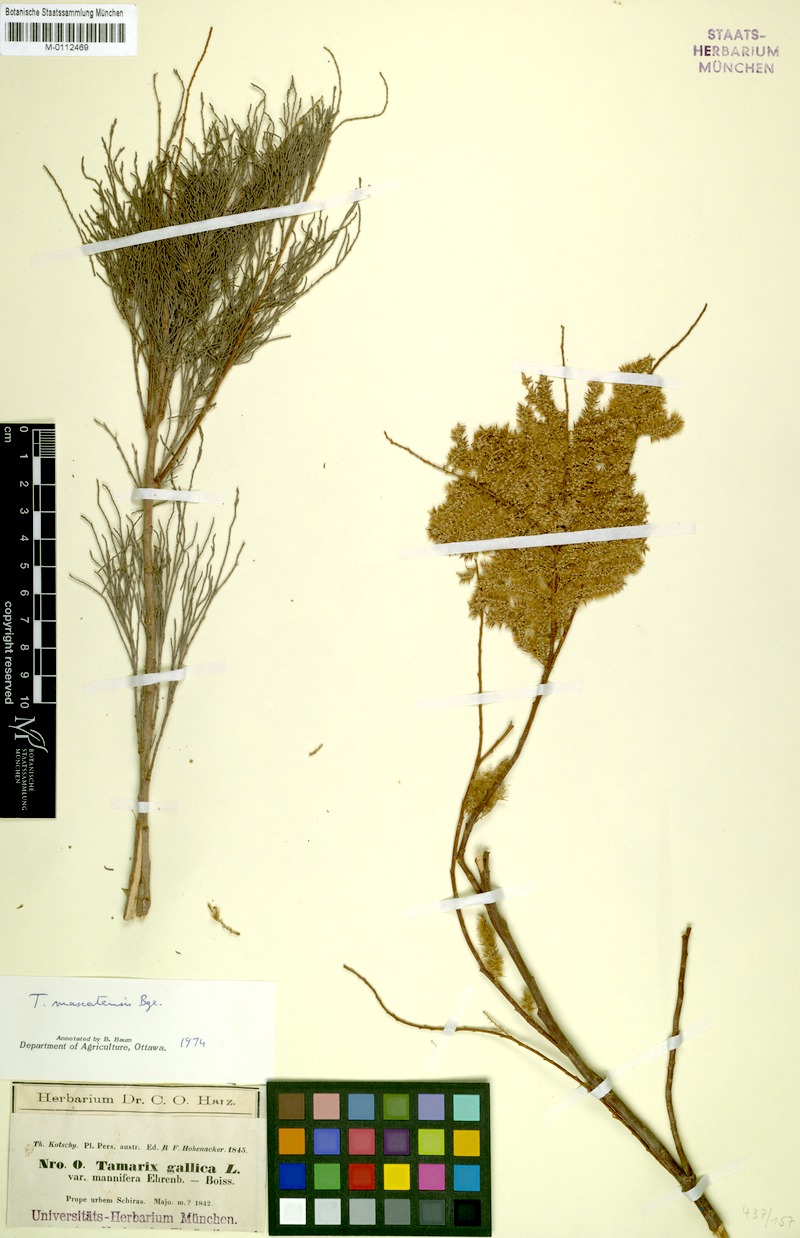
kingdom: Plantae
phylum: Tracheophyta
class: Magnoliopsida
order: Caryophyllales
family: Tamaricaceae
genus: Tamarix
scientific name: Tamarix mascatensis
